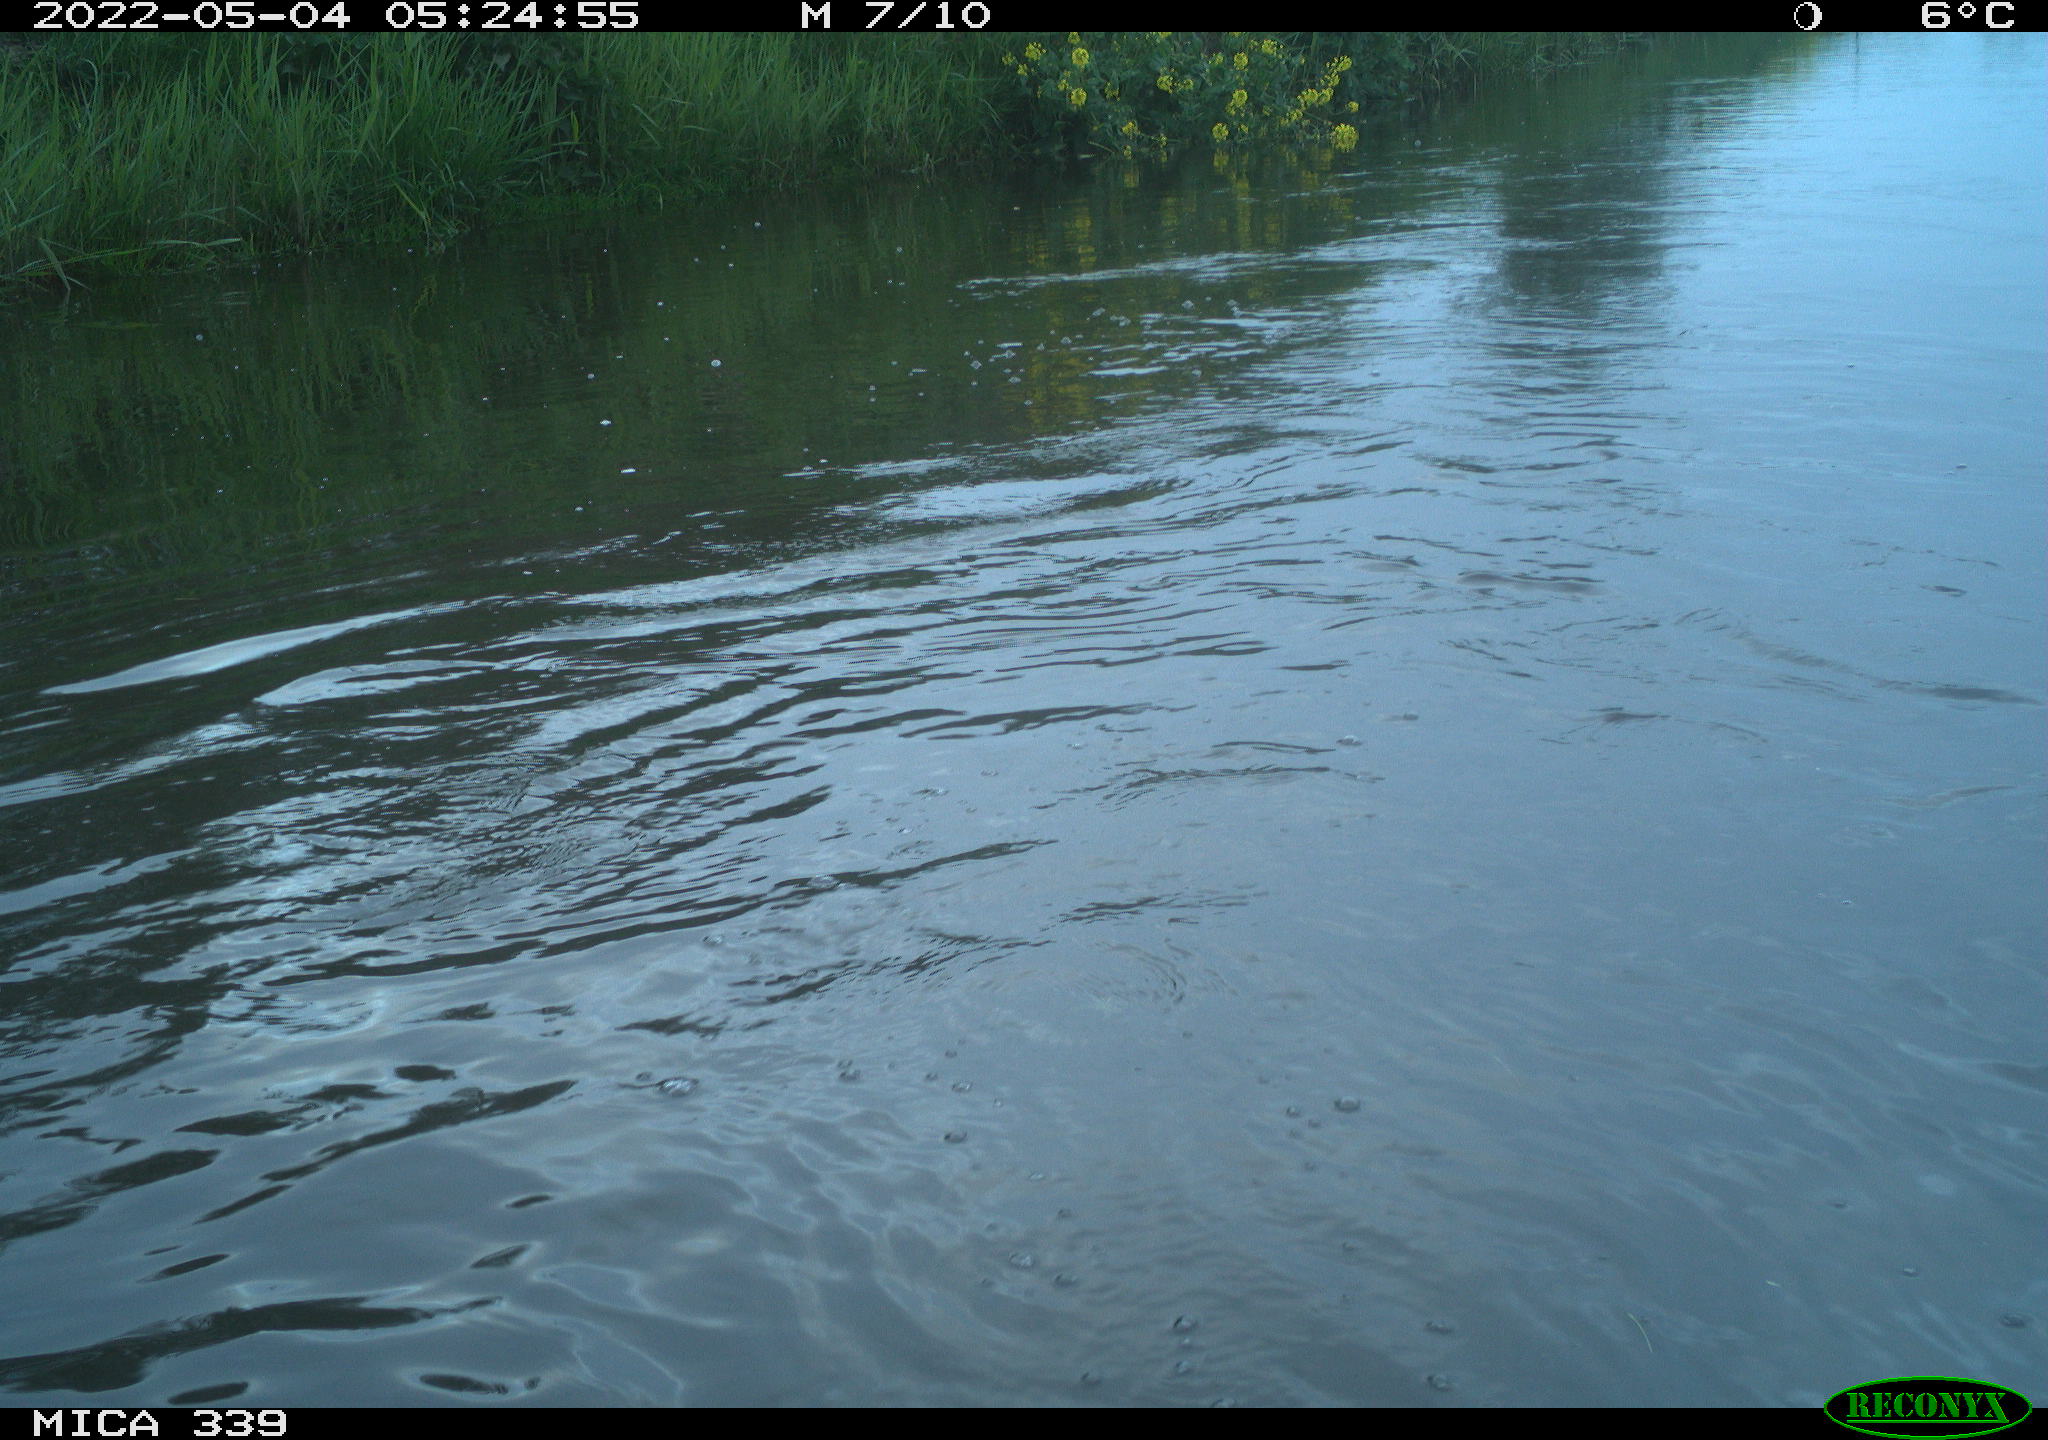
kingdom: Animalia
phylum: Chordata
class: Aves
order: Anseriformes
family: Anatidae
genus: Anas
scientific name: Anas platyrhynchos
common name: Mallard
